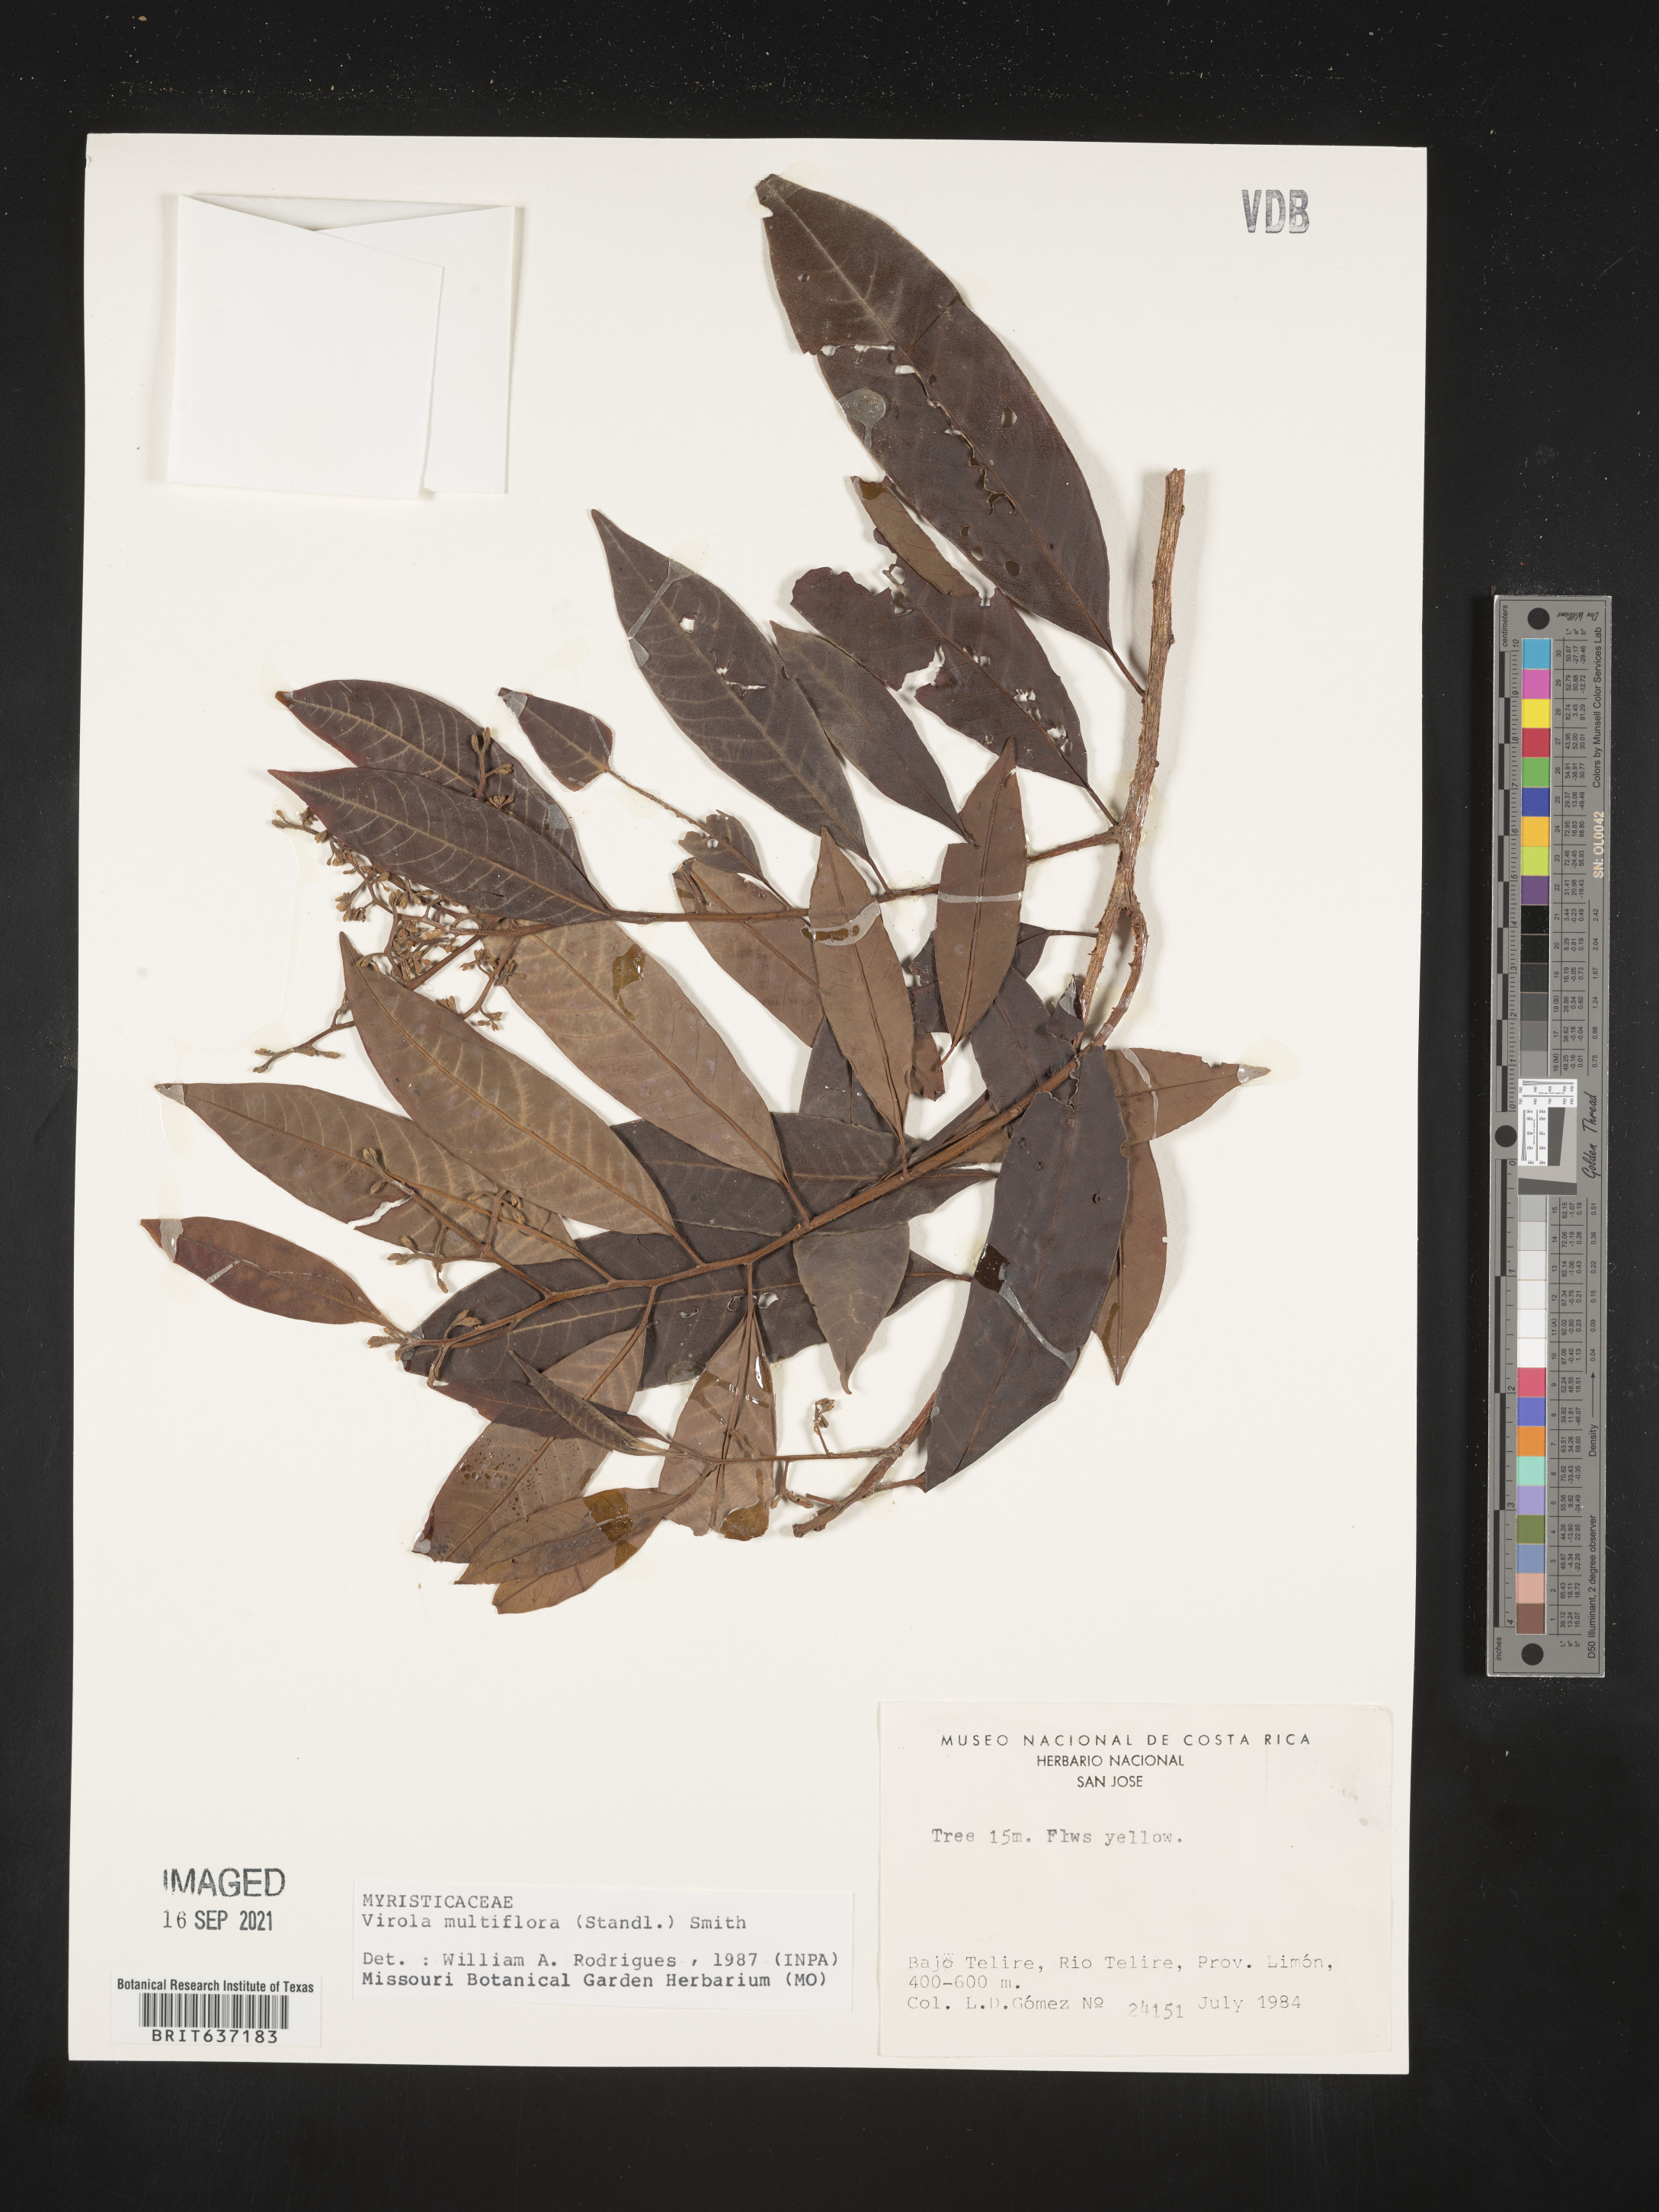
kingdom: Plantae
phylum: Tracheophyta
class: Magnoliopsida
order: Magnoliales
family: Myristicaceae
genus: Virola
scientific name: Virola
